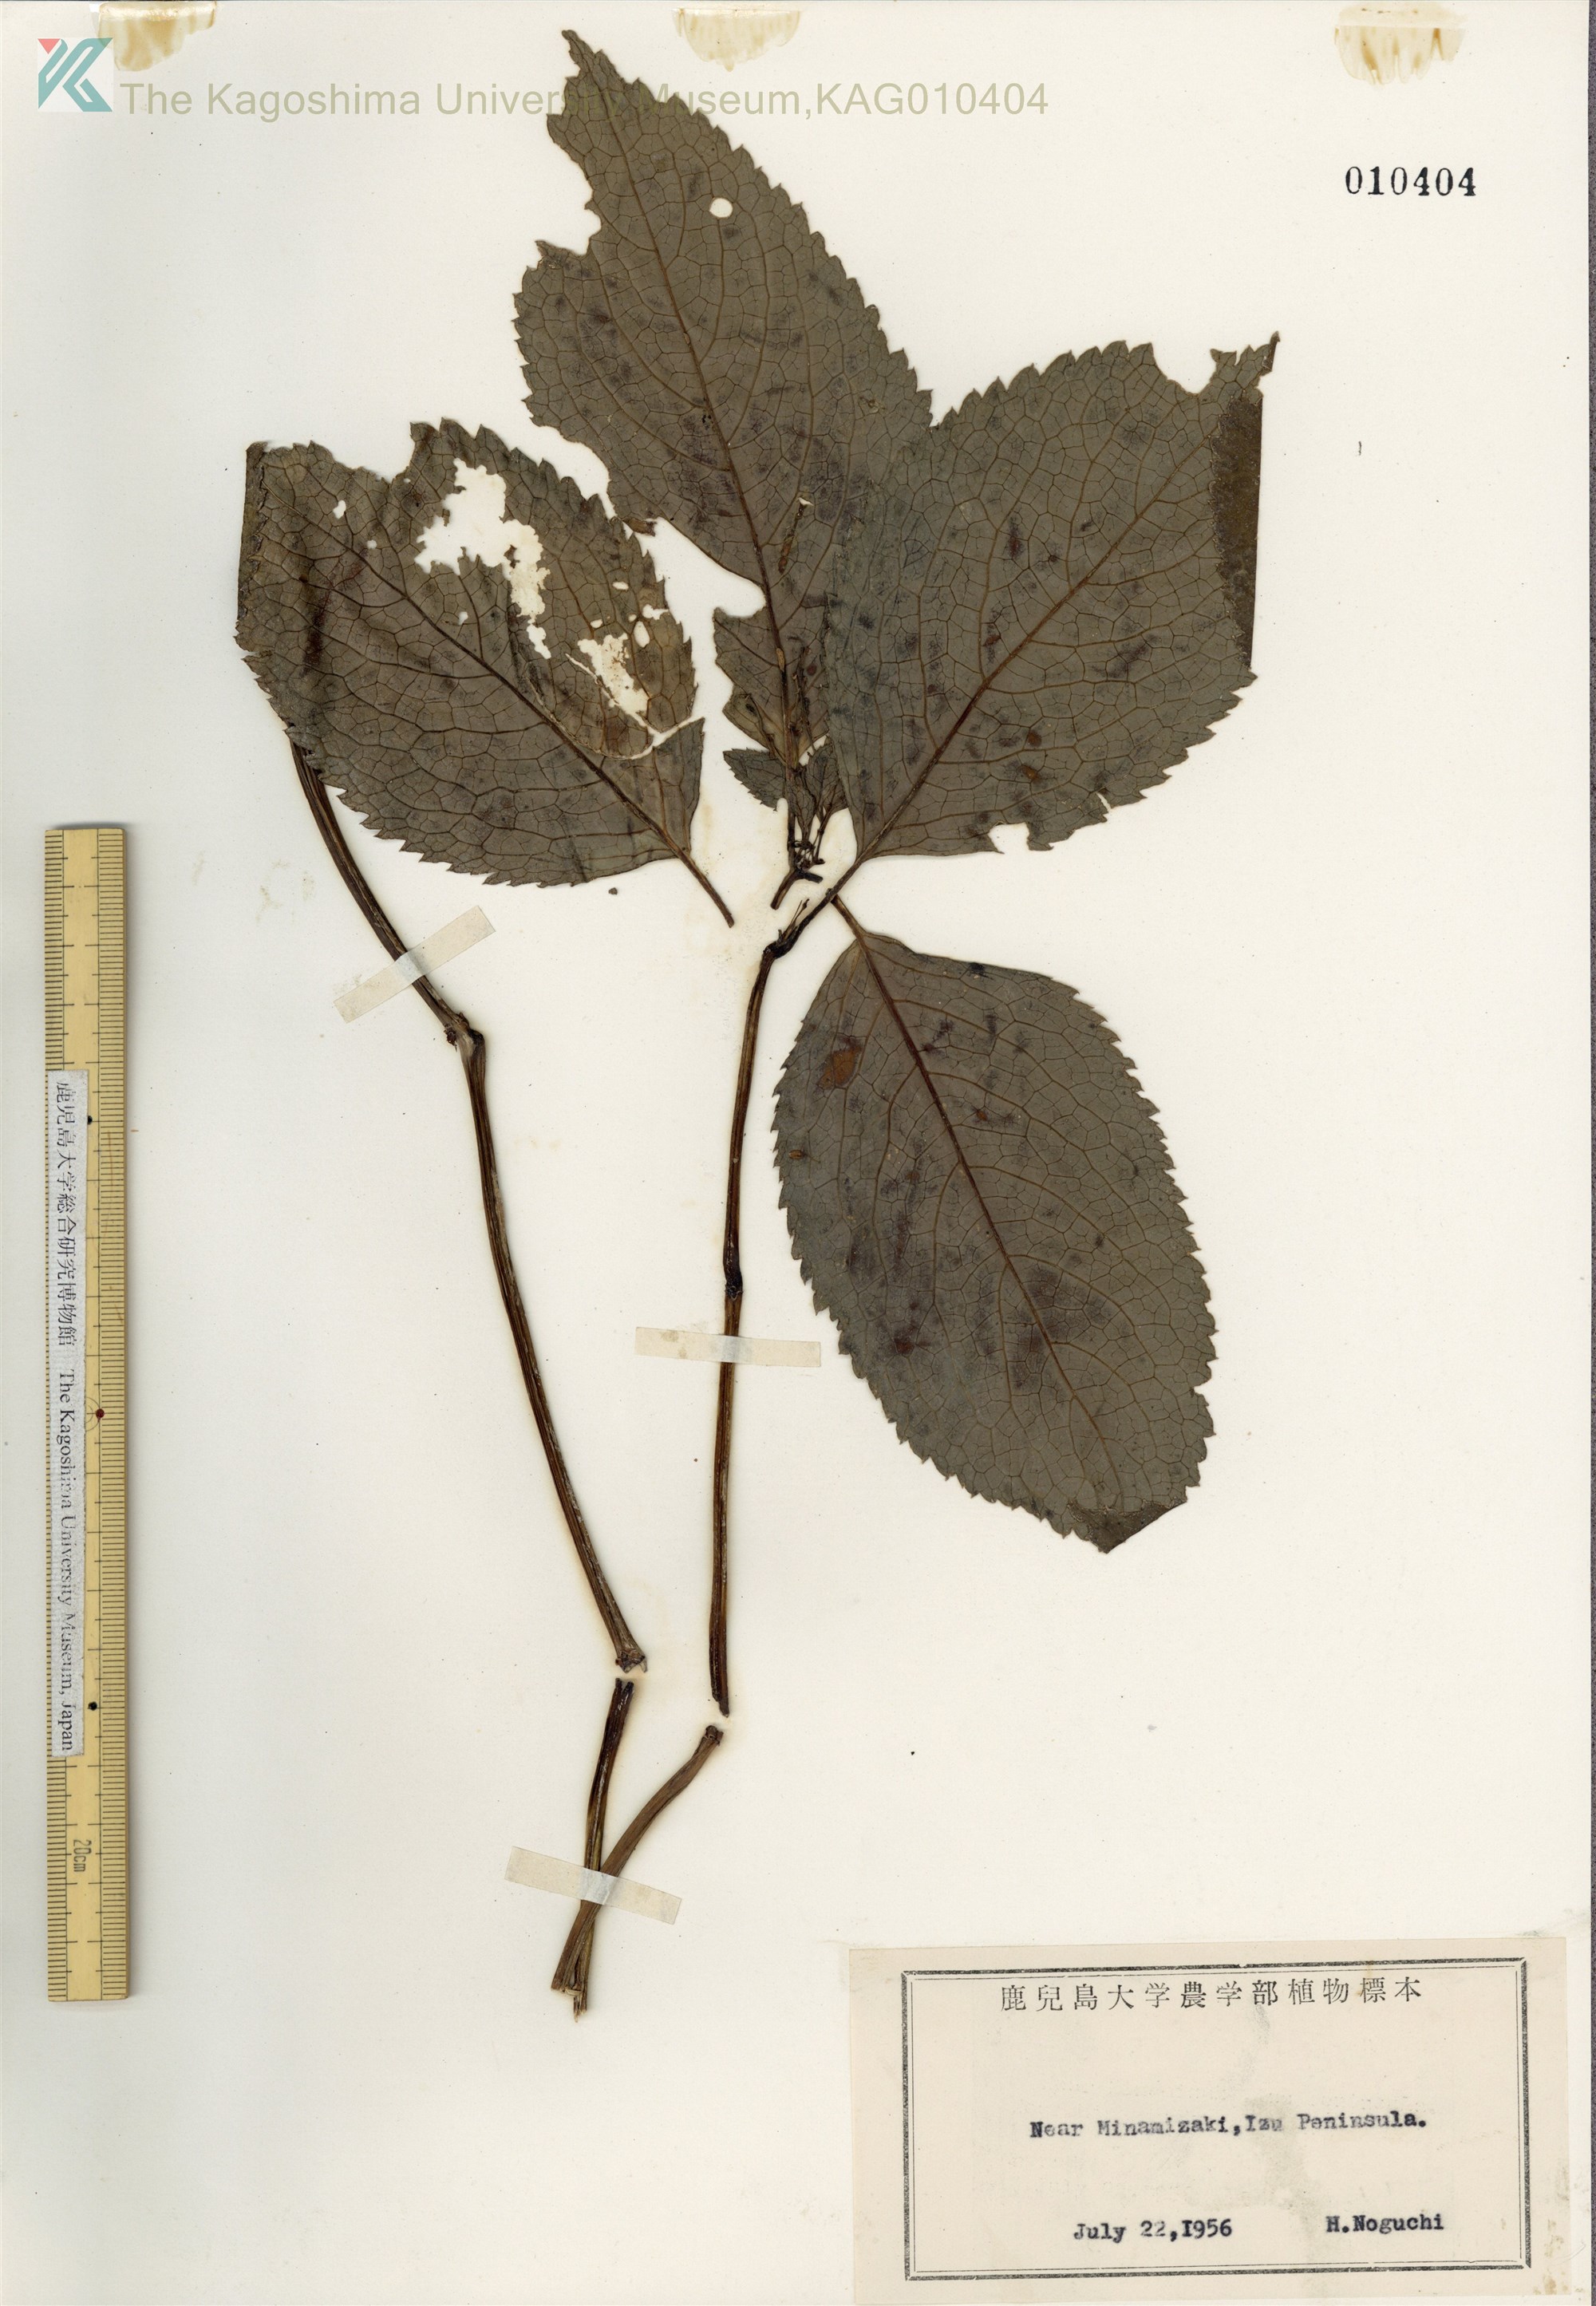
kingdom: Plantae
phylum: Tracheophyta
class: Magnoliopsida
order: Chloranthales
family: Chloranthaceae
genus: Chloranthus
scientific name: Chloranthus serratus
